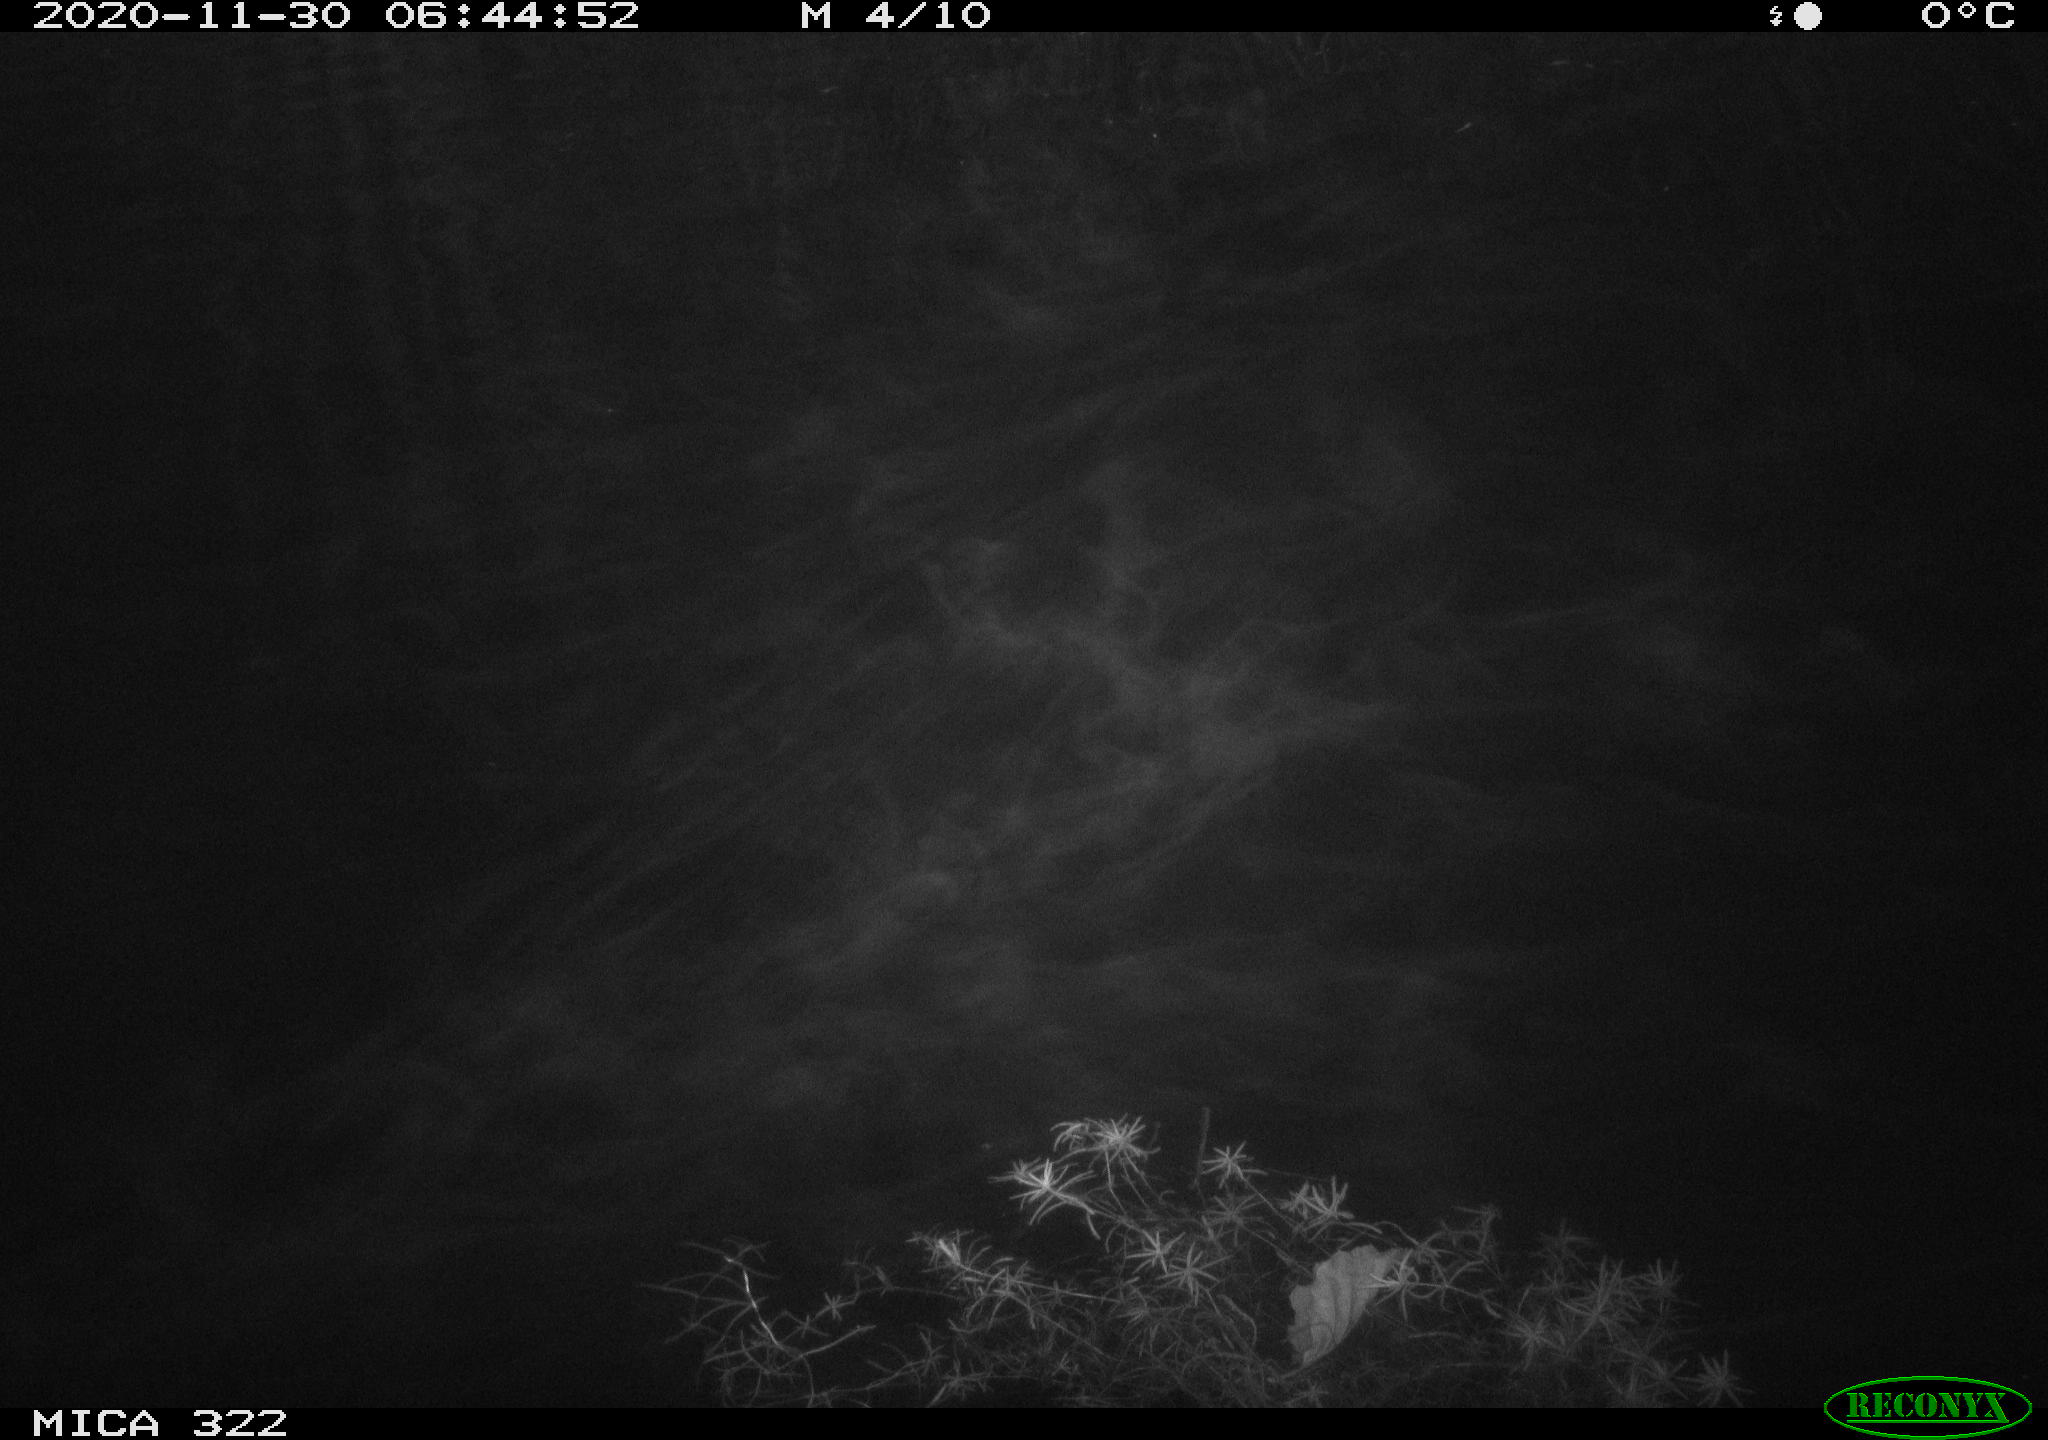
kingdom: Animalia
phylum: Chordata
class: Mammalia
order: Rodentia
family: Muridae
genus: Rattus
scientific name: Rattus norvegicus
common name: Brown rat
